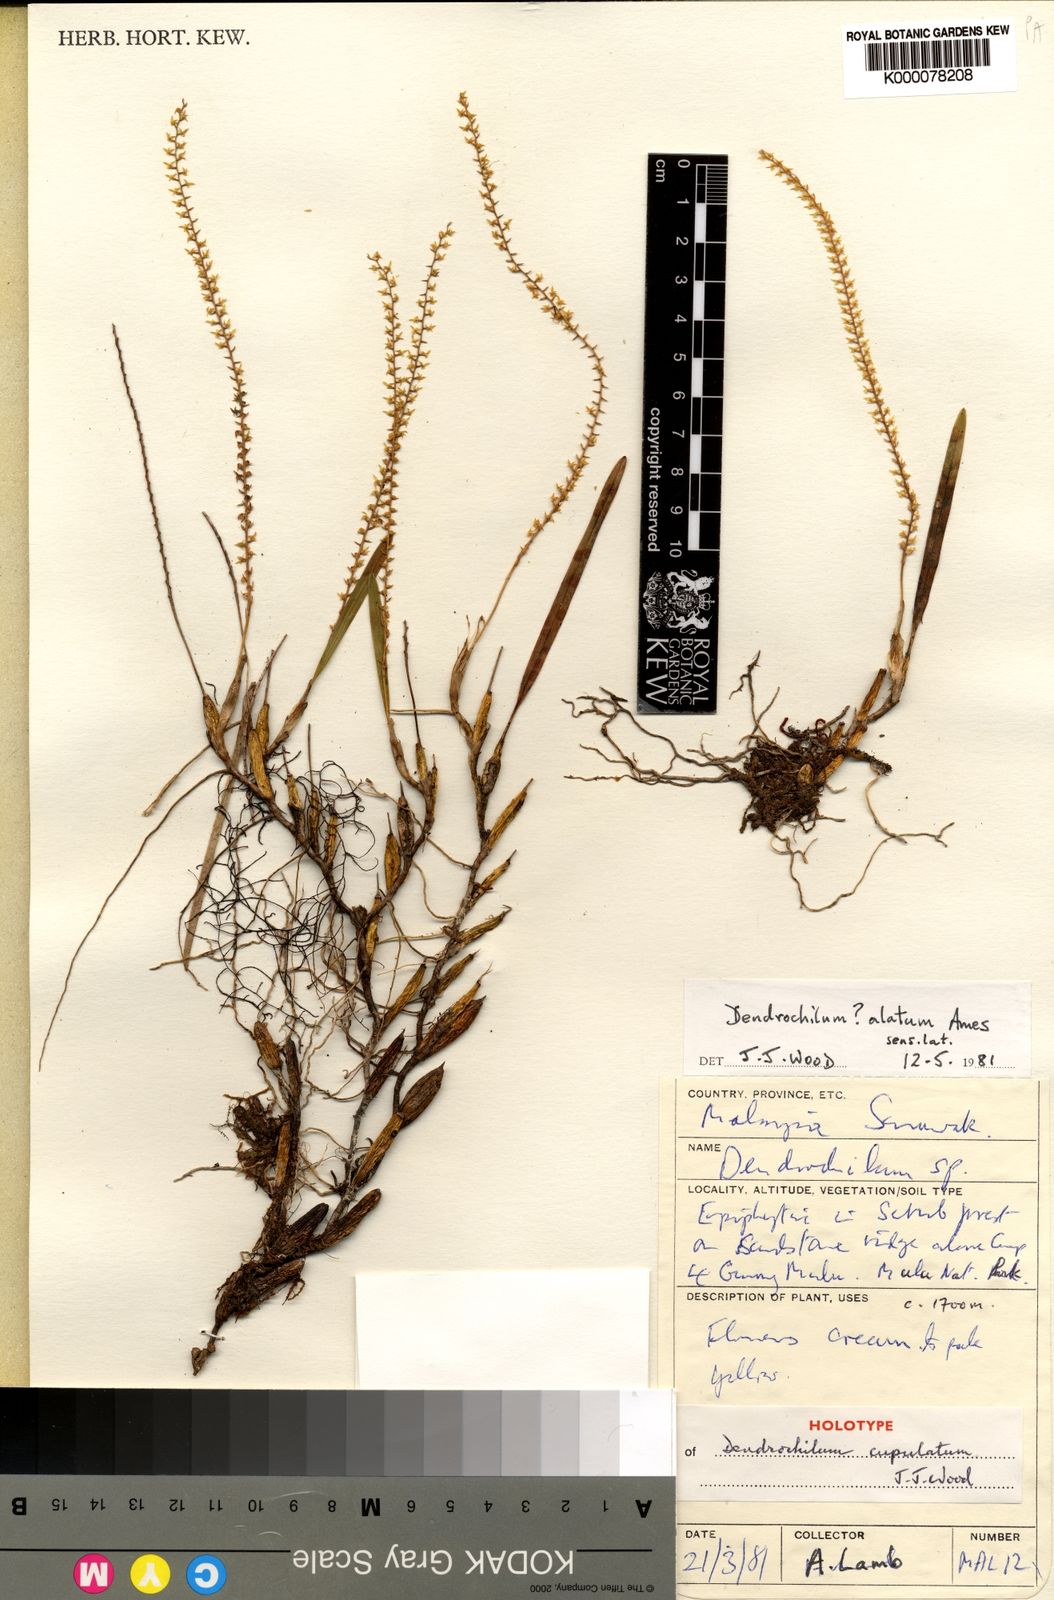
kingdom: Plantae
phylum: Tracheophyta
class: Liliopsida
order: Asparagales
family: Orchidaceae
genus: Coelogyne
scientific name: Coelogyne cupulata
